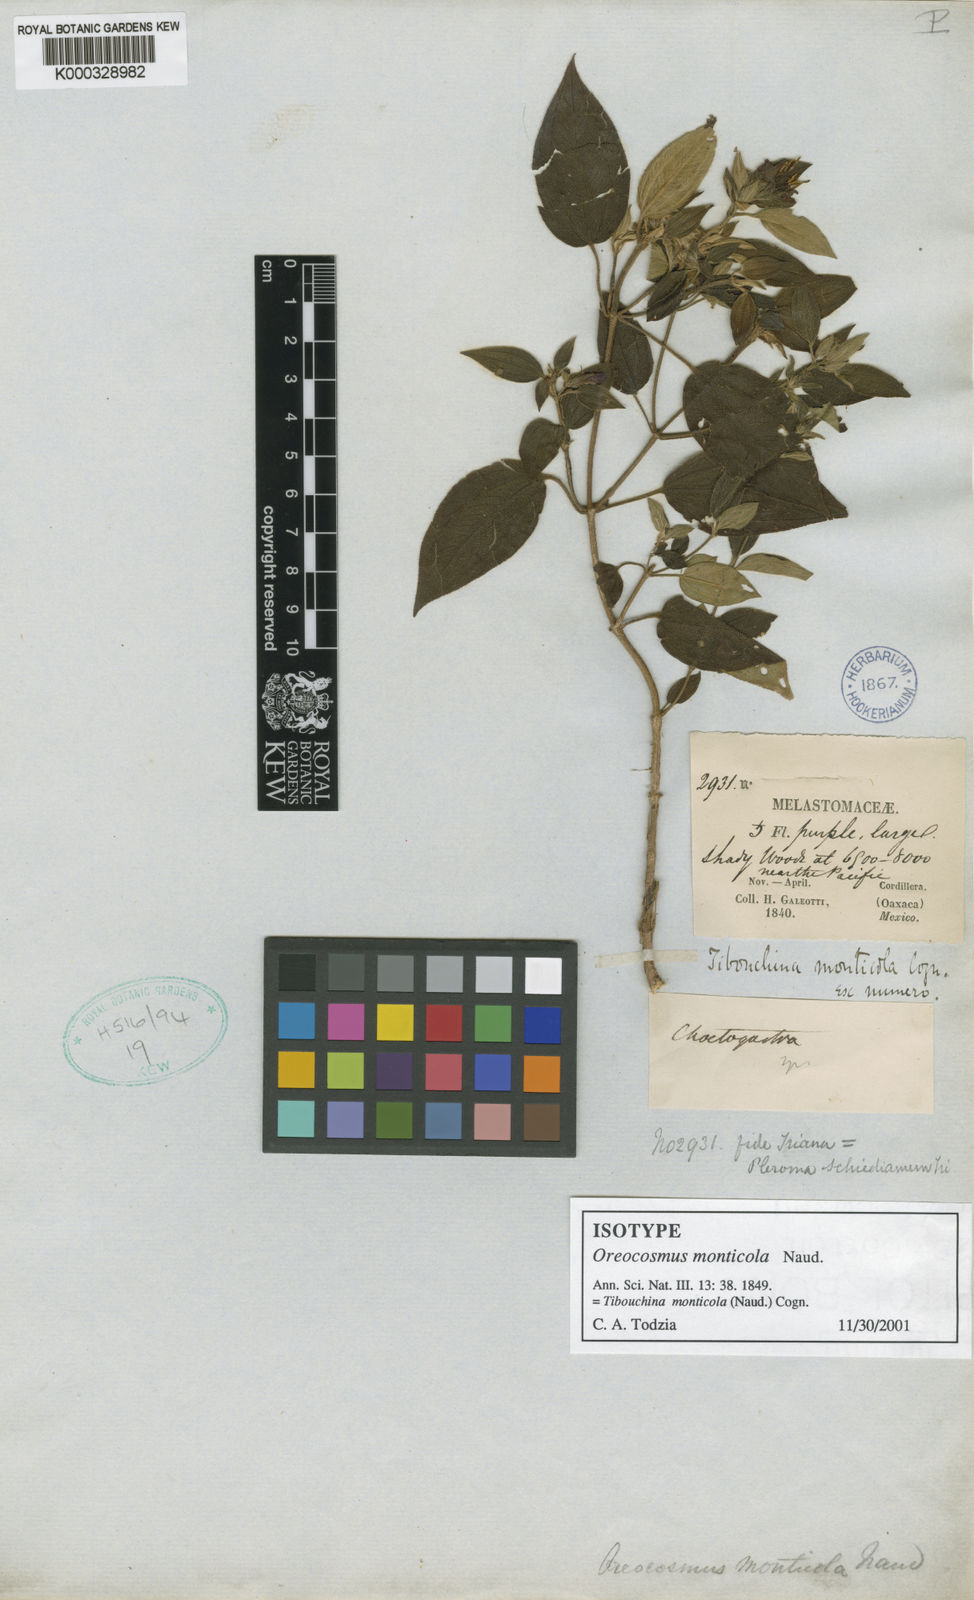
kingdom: Plantae
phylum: Tracheophyta
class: Magnoliopsida
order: Myrtales
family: Melastomataceae
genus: Chaetogastra
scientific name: Chaetogastra monticola
